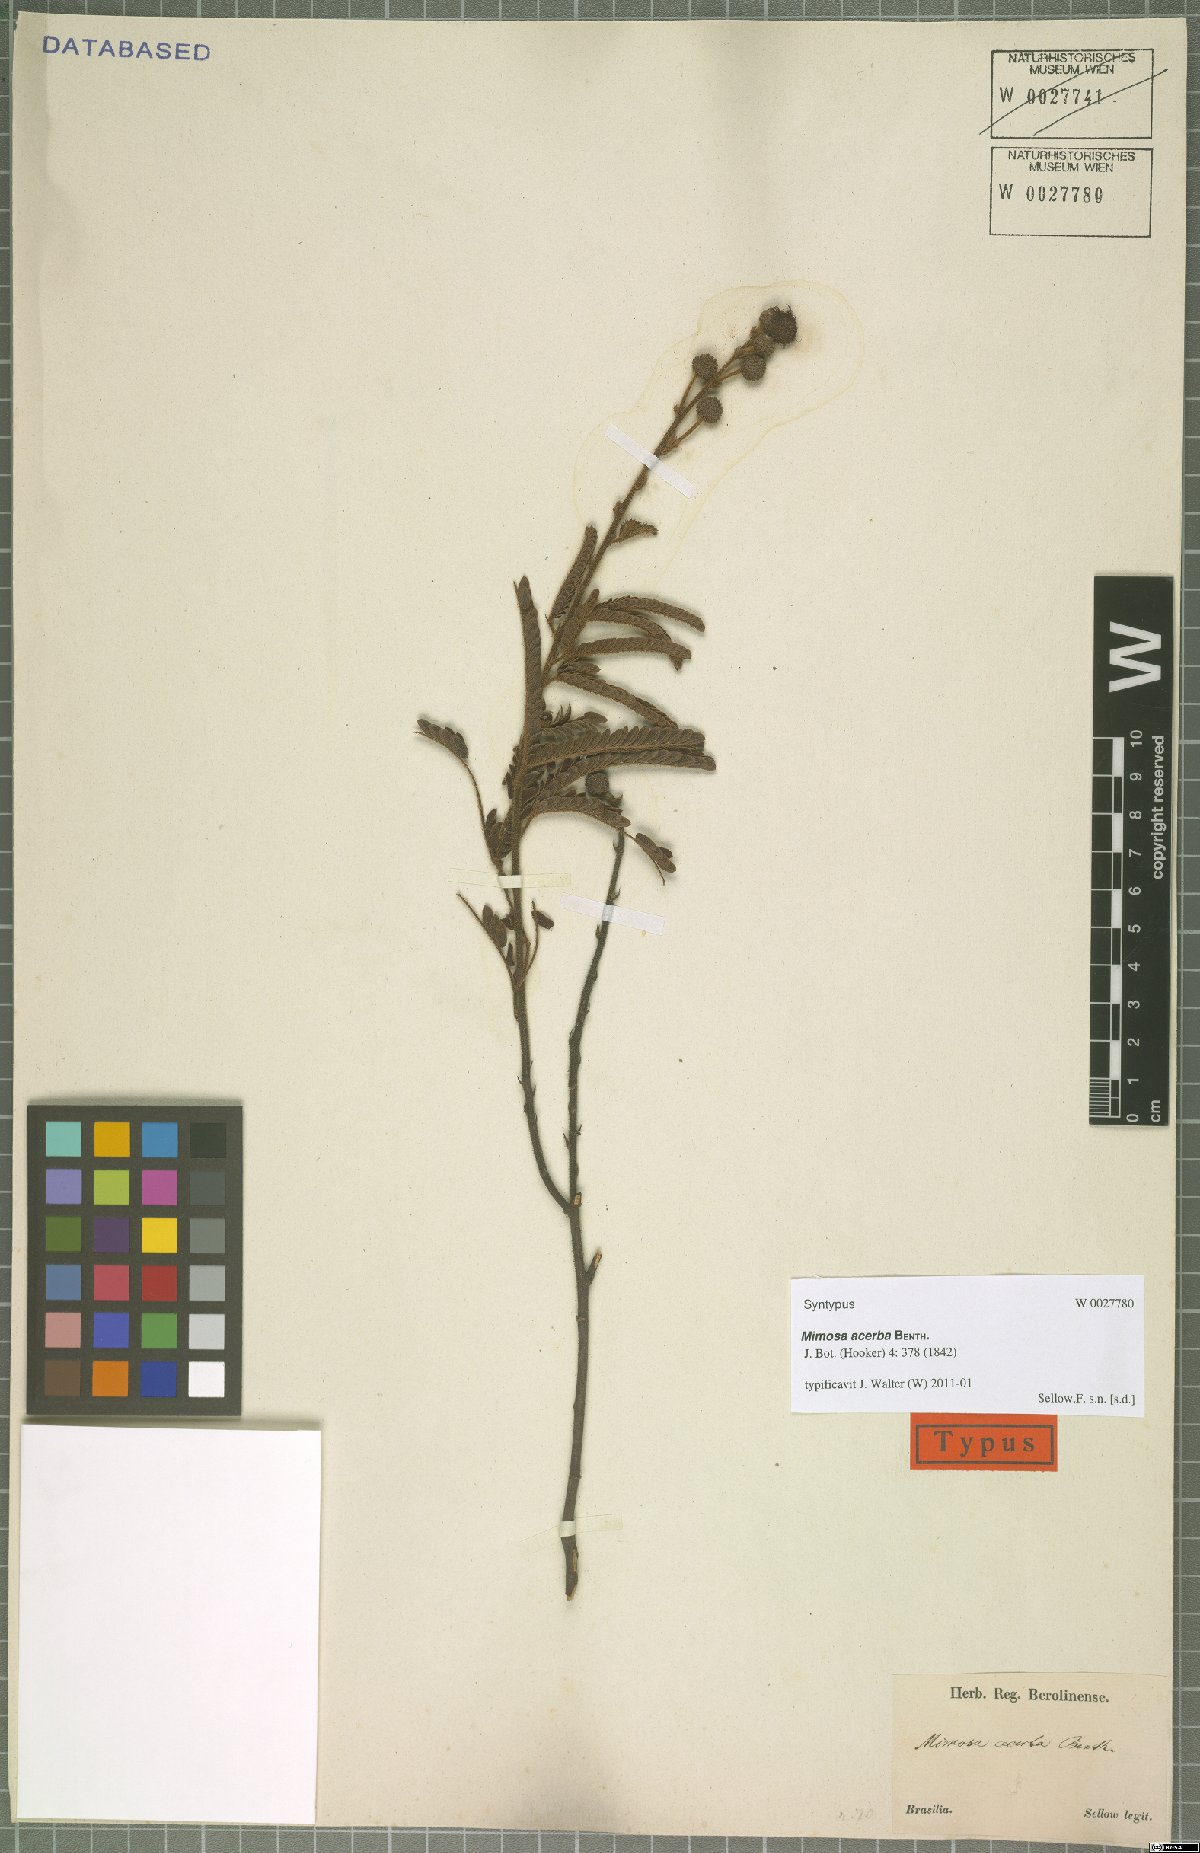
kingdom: Plantae
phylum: Tracheophyta
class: Magnoliopsida
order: Fabales
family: Fabaceae
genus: Mimosa
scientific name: Mimosa dolens
